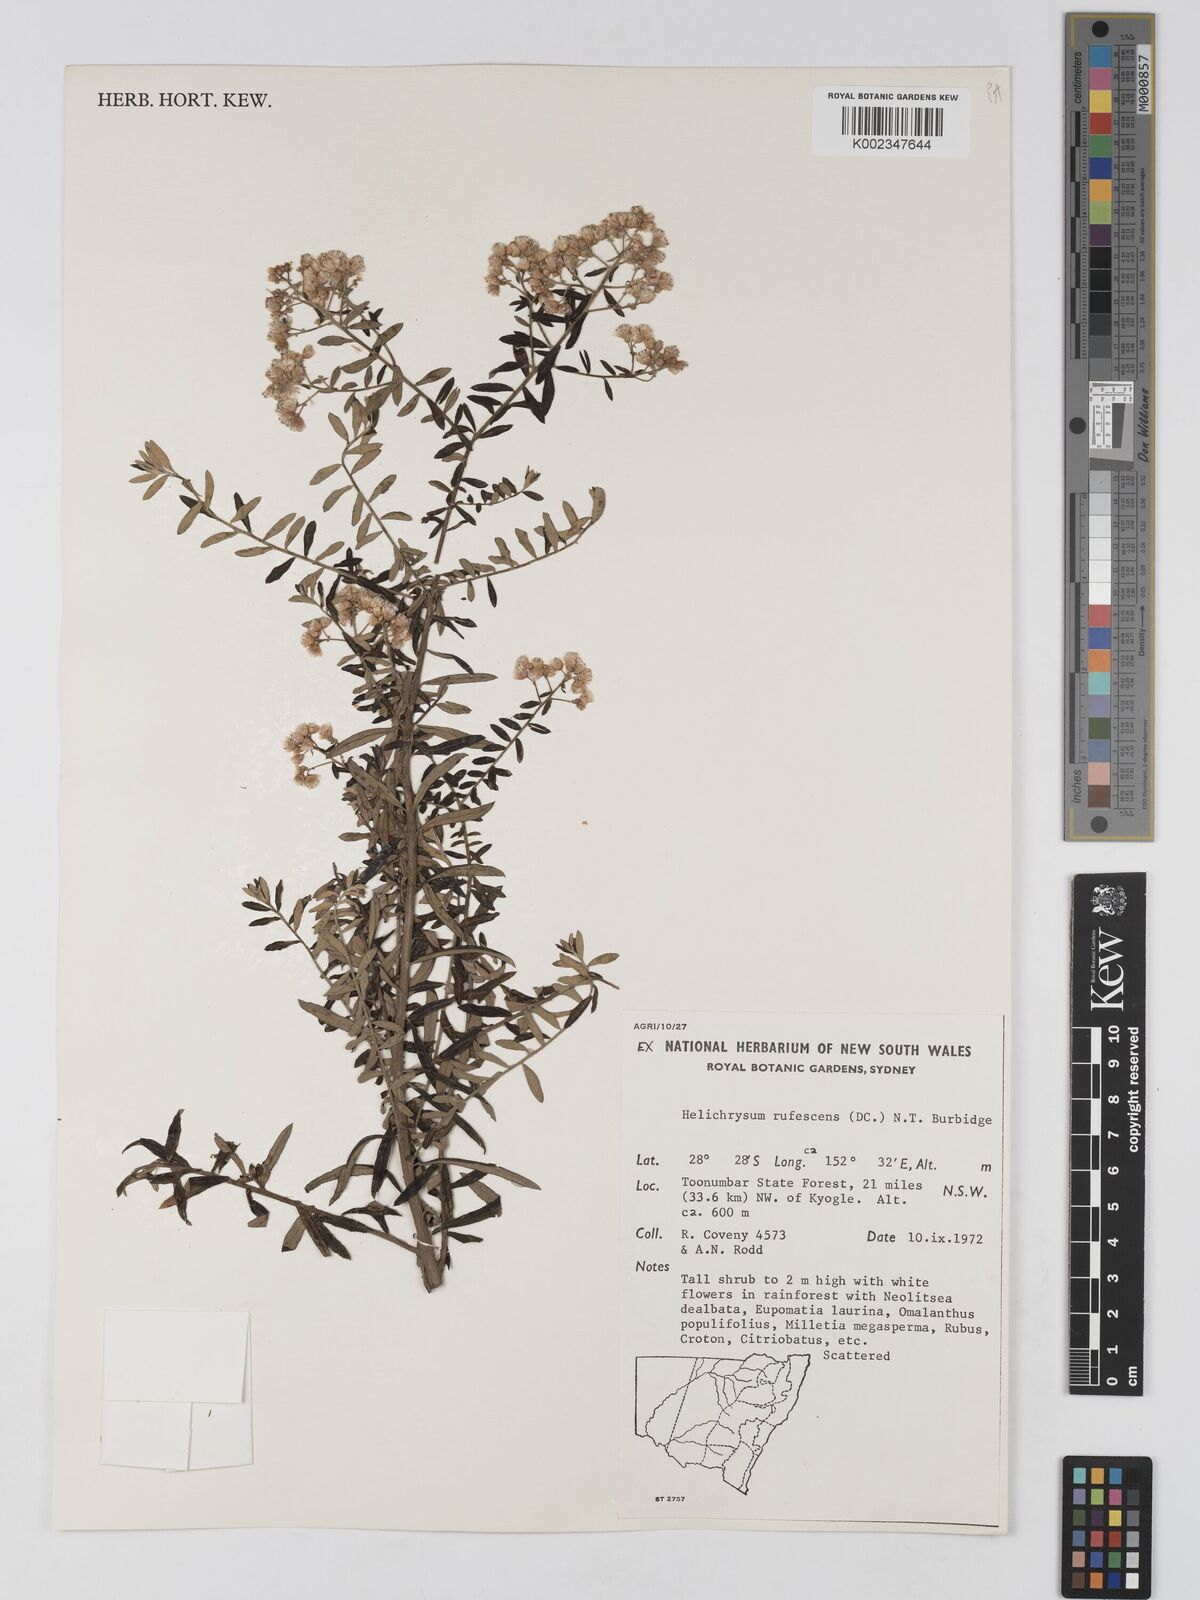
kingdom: Plantae
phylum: Tracheophyta
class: Magnoliopsida
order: Asterales
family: Asteraceae
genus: Ozothamnus
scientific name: Ozothamnus rufescens
